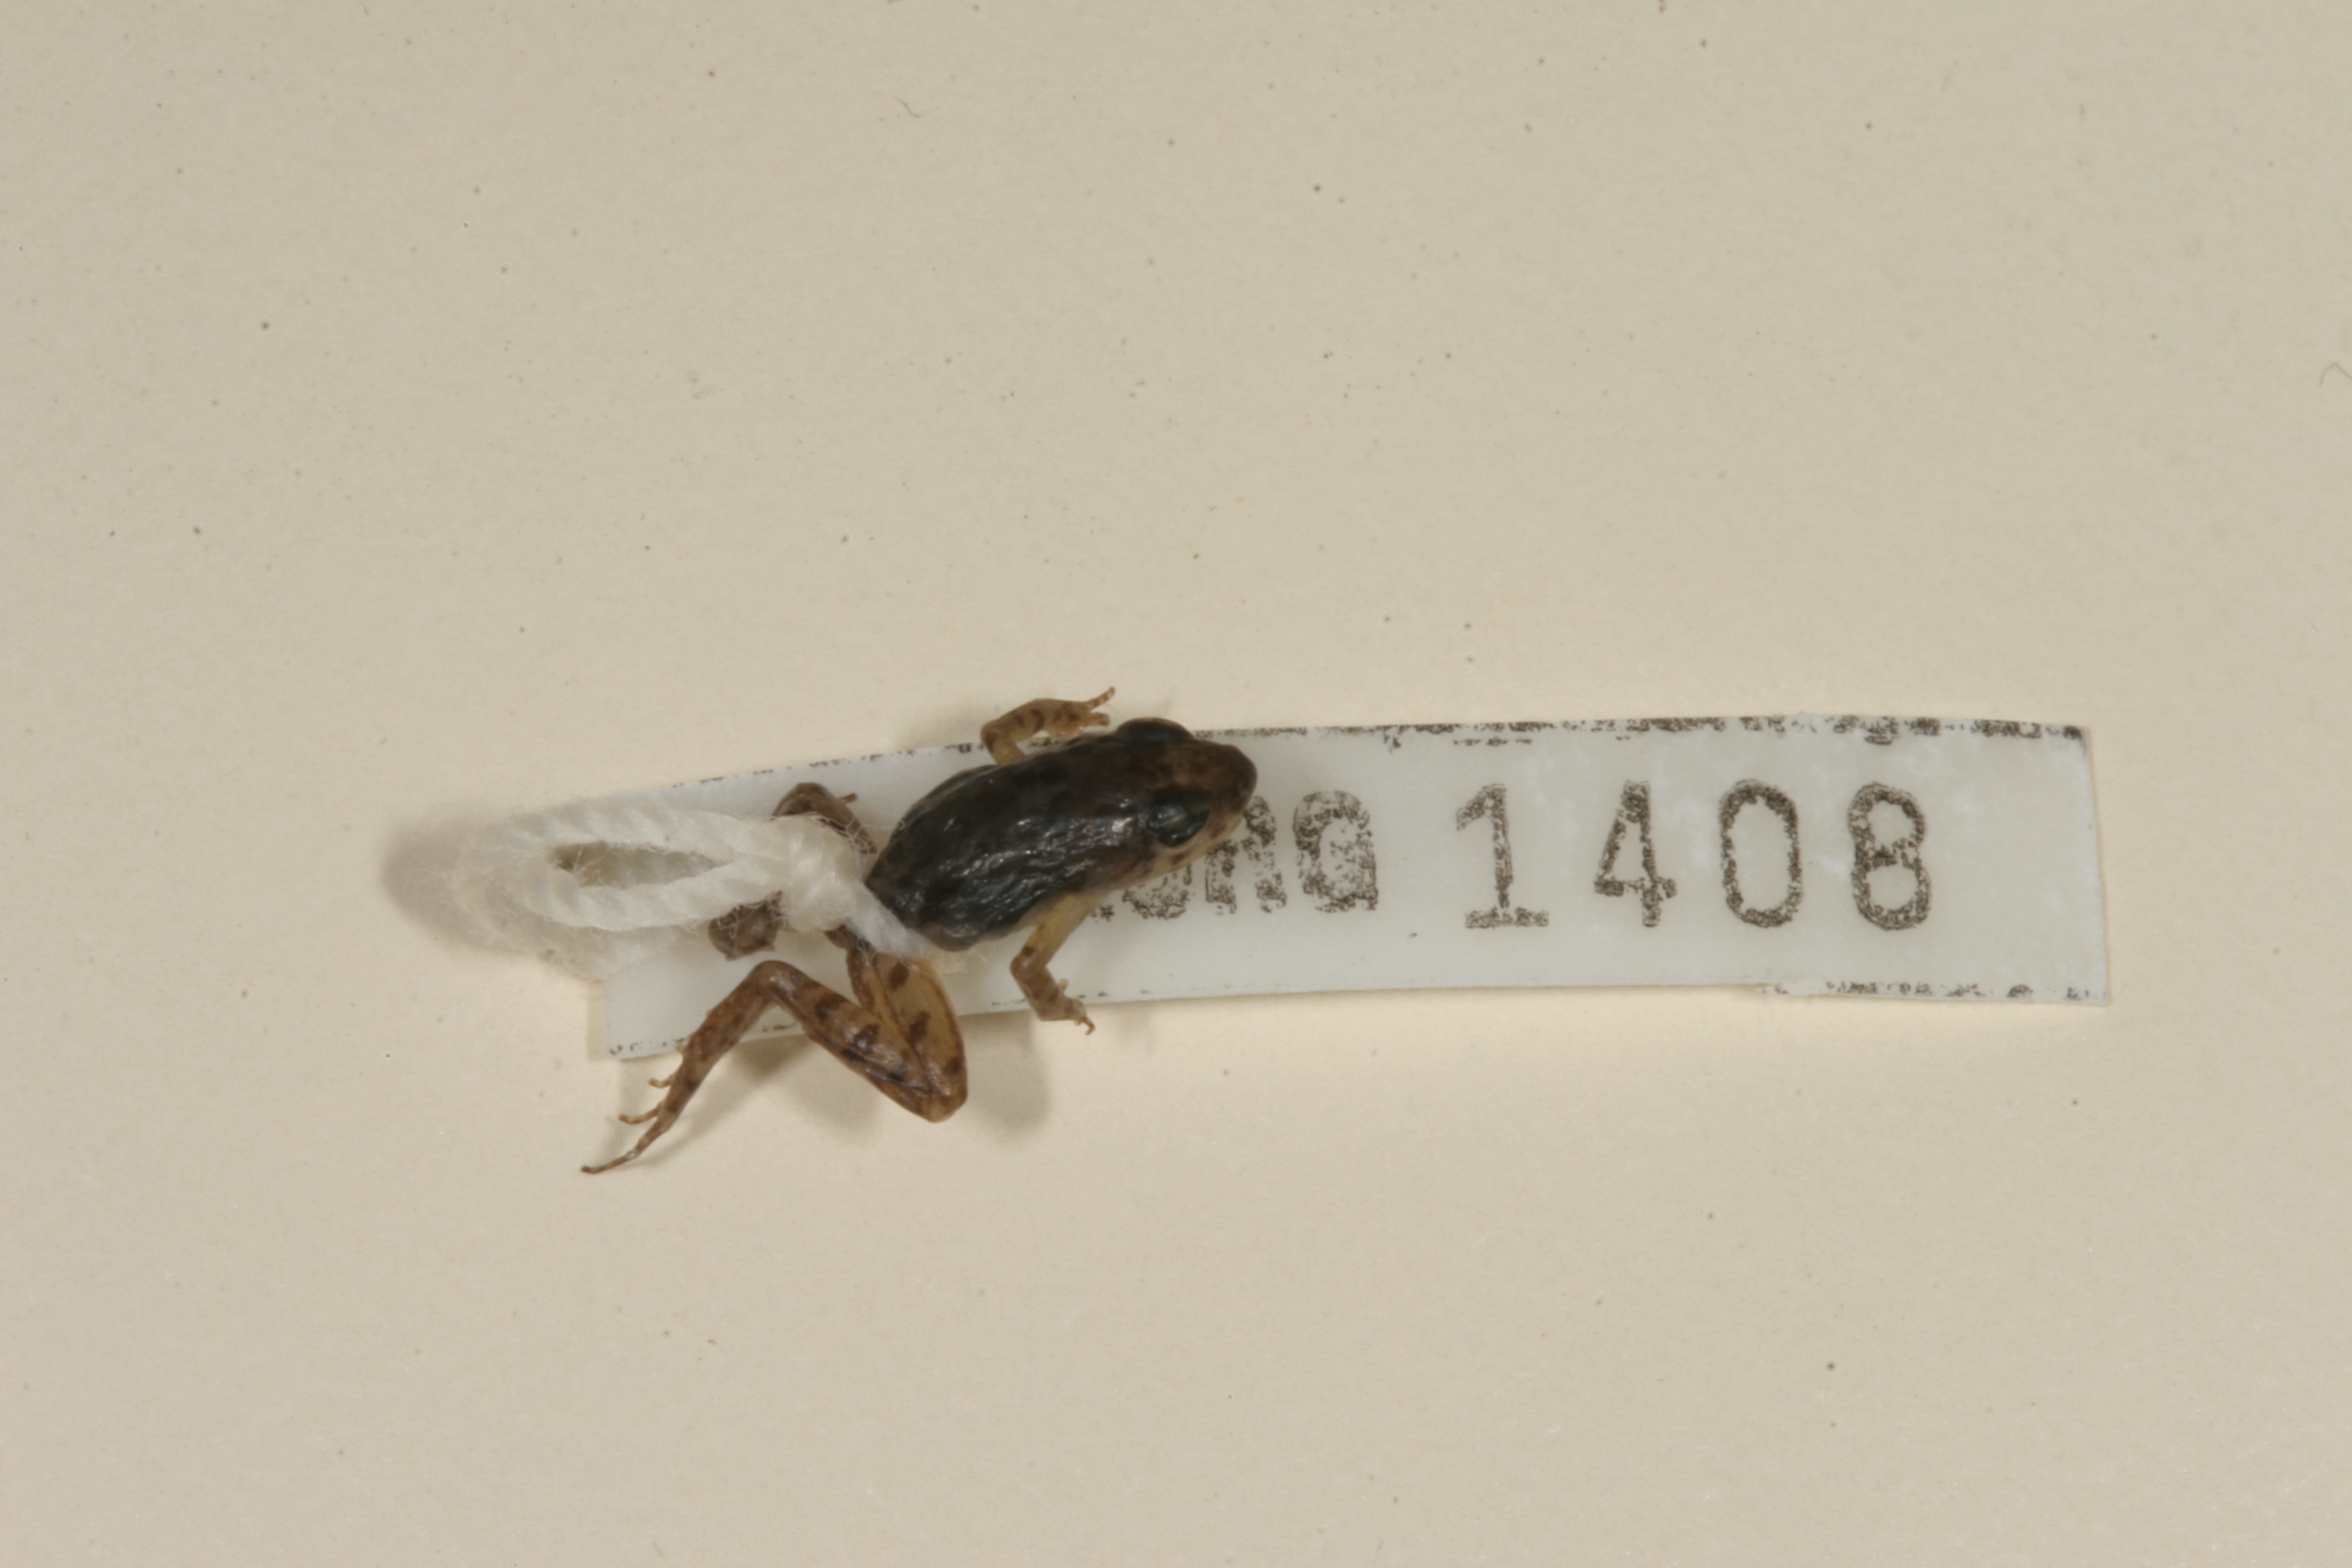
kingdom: Animalia
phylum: Chordata
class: Amphibia
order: Anura
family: Phrynobatrachidae
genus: Phrynobatrachus
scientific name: Phrynobatrachus mababiensis
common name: Dwarf puddle frog
